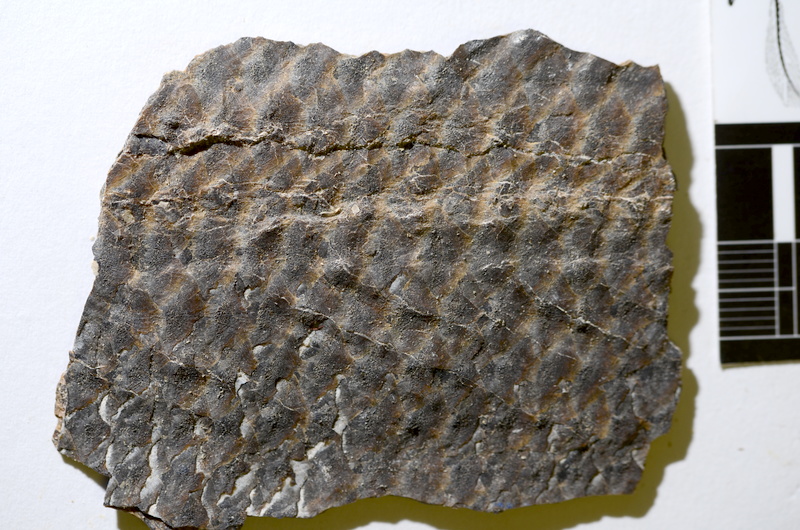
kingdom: Animalia
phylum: Chordata
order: Amiiformes
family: Caturidae
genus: Caturus
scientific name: Caturus
